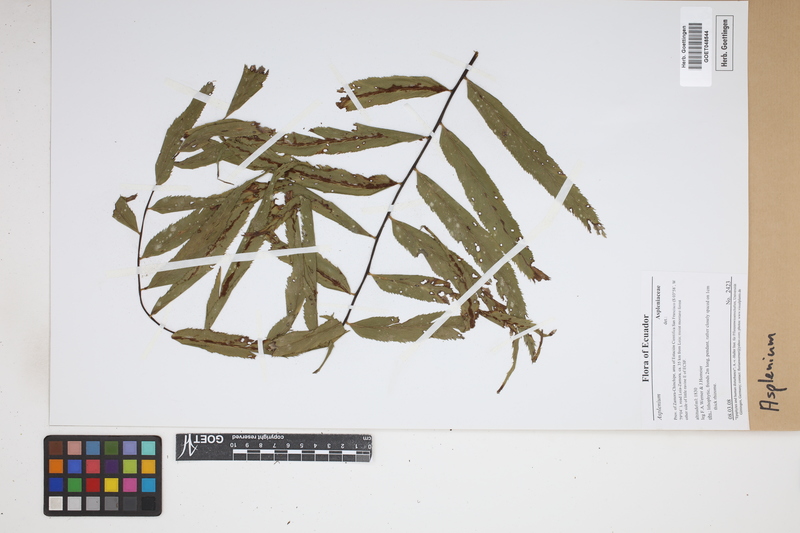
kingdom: Plantae
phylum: Tracheophyta
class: Polypodiopsida
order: Polypodiales
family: Aspleniaceae
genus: Asplenium
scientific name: Asplenium
